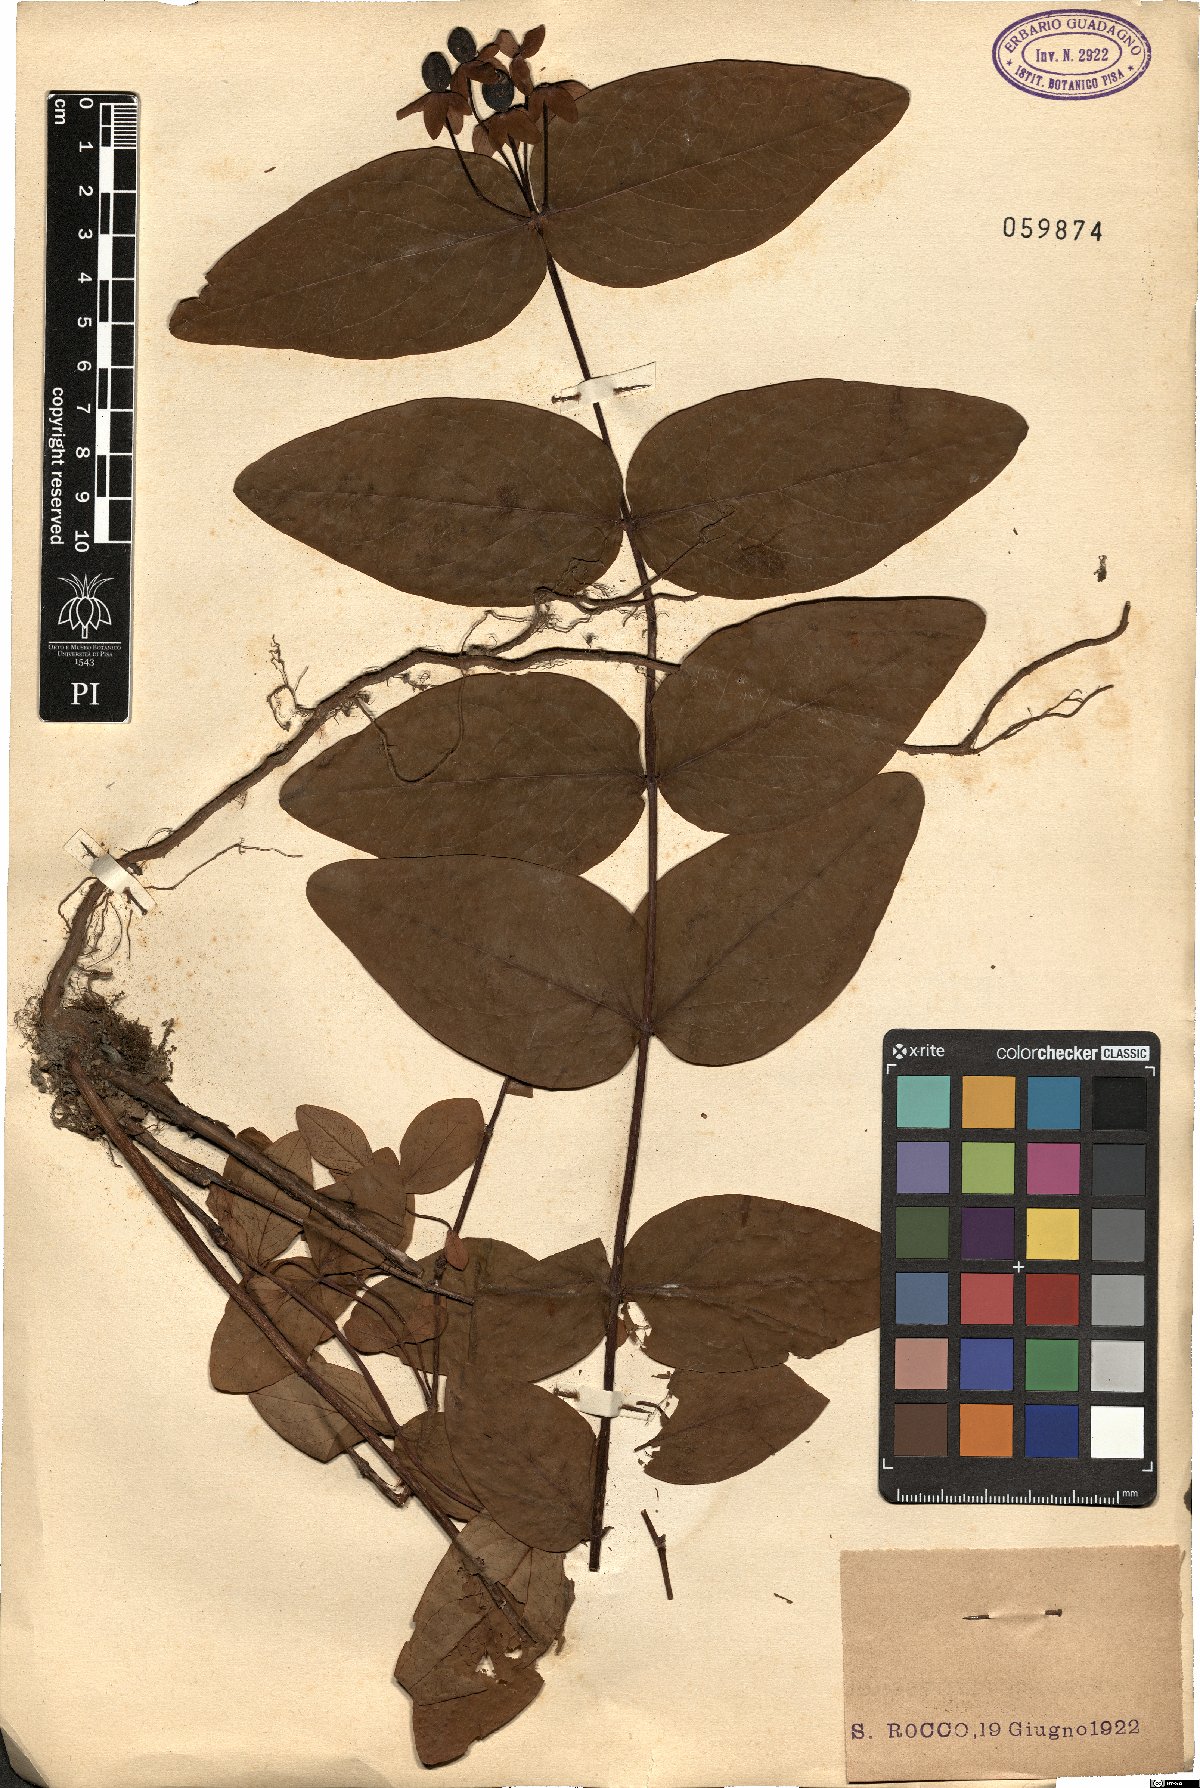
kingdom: Plantae
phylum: Tracheophyta
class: Magnoliopsida
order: Malpighiales
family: Hypericaceae
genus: Hypericum
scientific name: Hypericum androsaemum
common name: Sweet-amber
